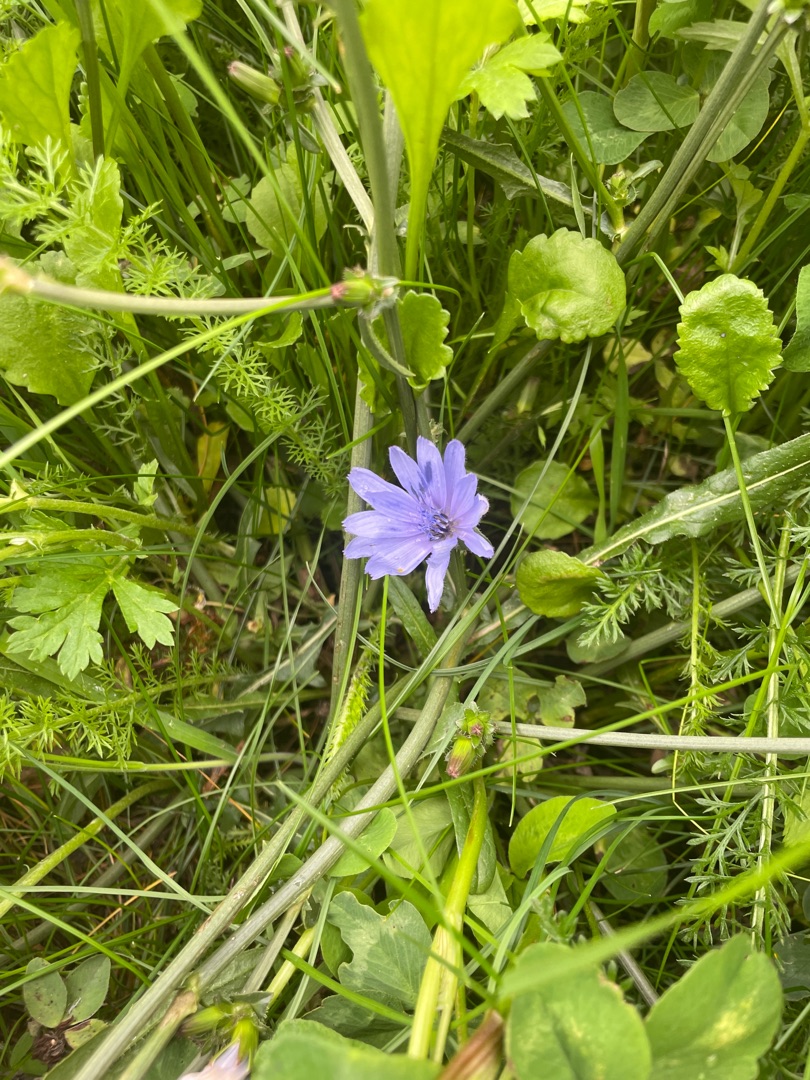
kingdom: Plantae
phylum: Tracheophyta
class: Magnoliopsida
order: Asterales
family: Asteraceae
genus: Cichorium
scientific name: Cichorium intybus
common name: Cikorie
